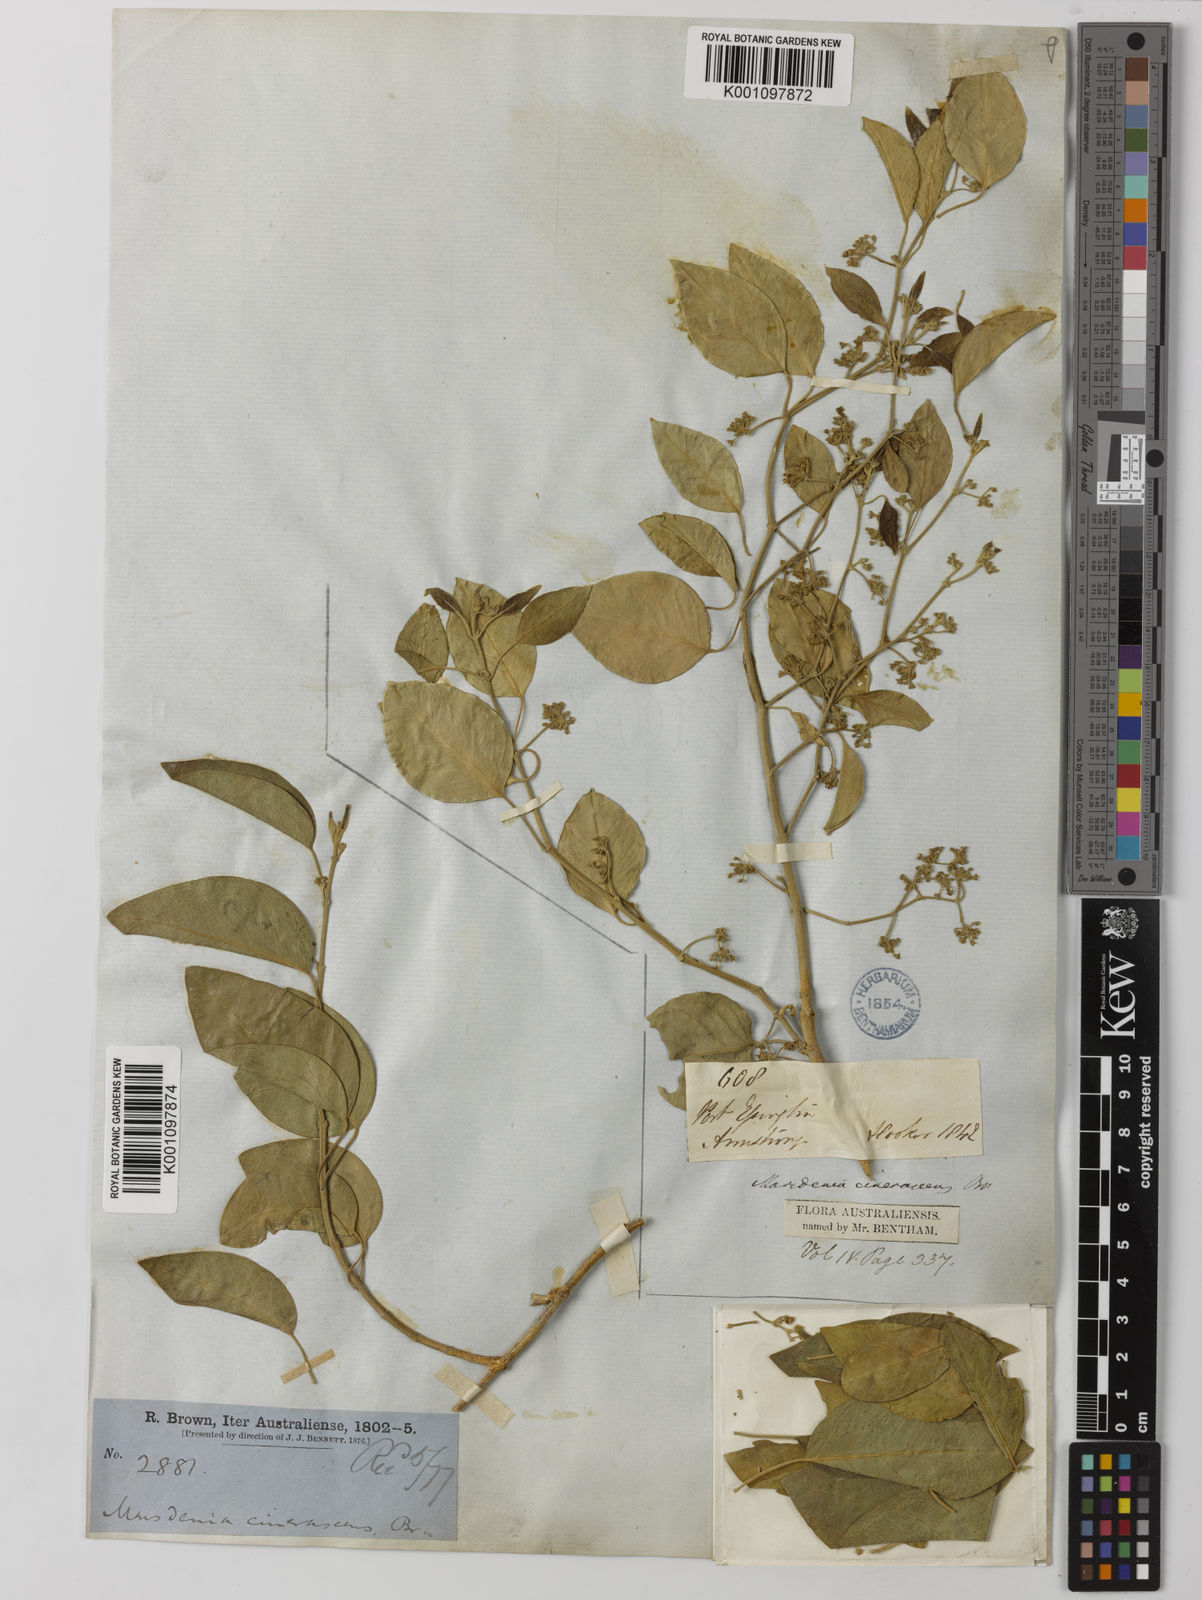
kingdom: Plantae
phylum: Tracheophyta
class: Magnoliopsida
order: Gentianales
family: Apocynaceae
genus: Vincetoxicum
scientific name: Vincetoxicum cinerascens
